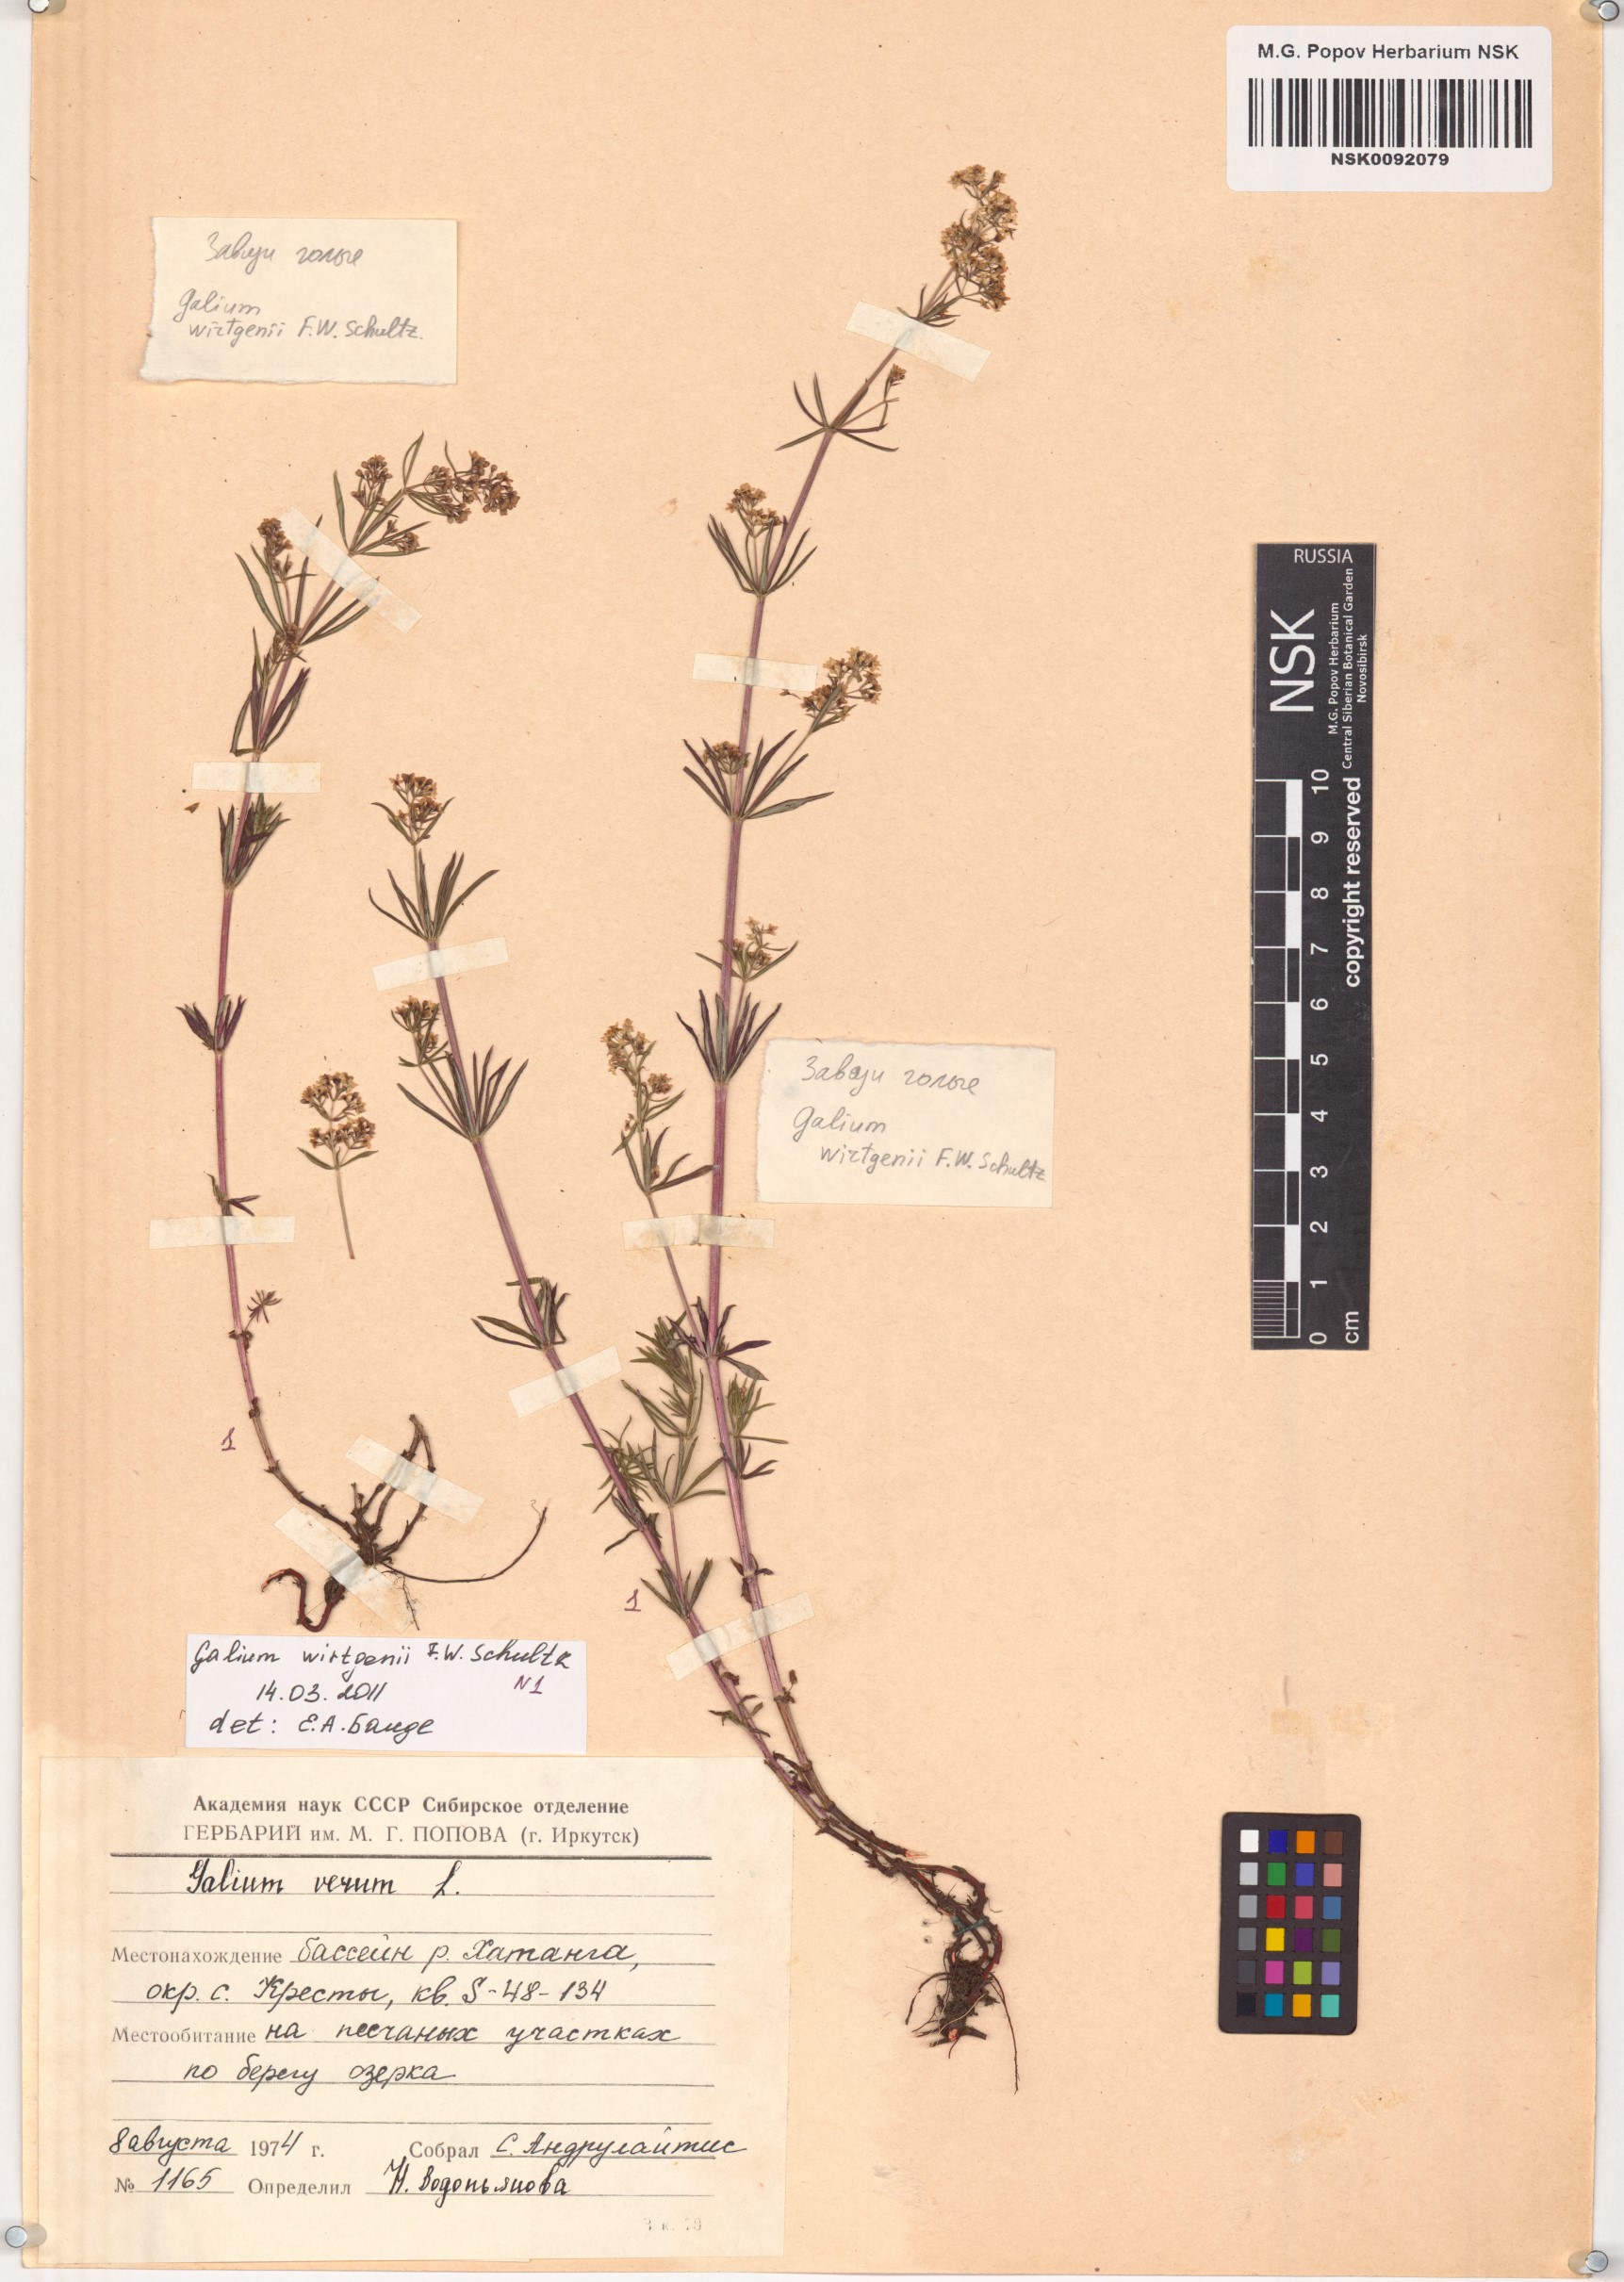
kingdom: Plantae
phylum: Tracheophyta
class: Magnoliopsida
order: Gentianales
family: Rubiaceae
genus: Galium
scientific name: Galium verum
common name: Lady's bedstraw
